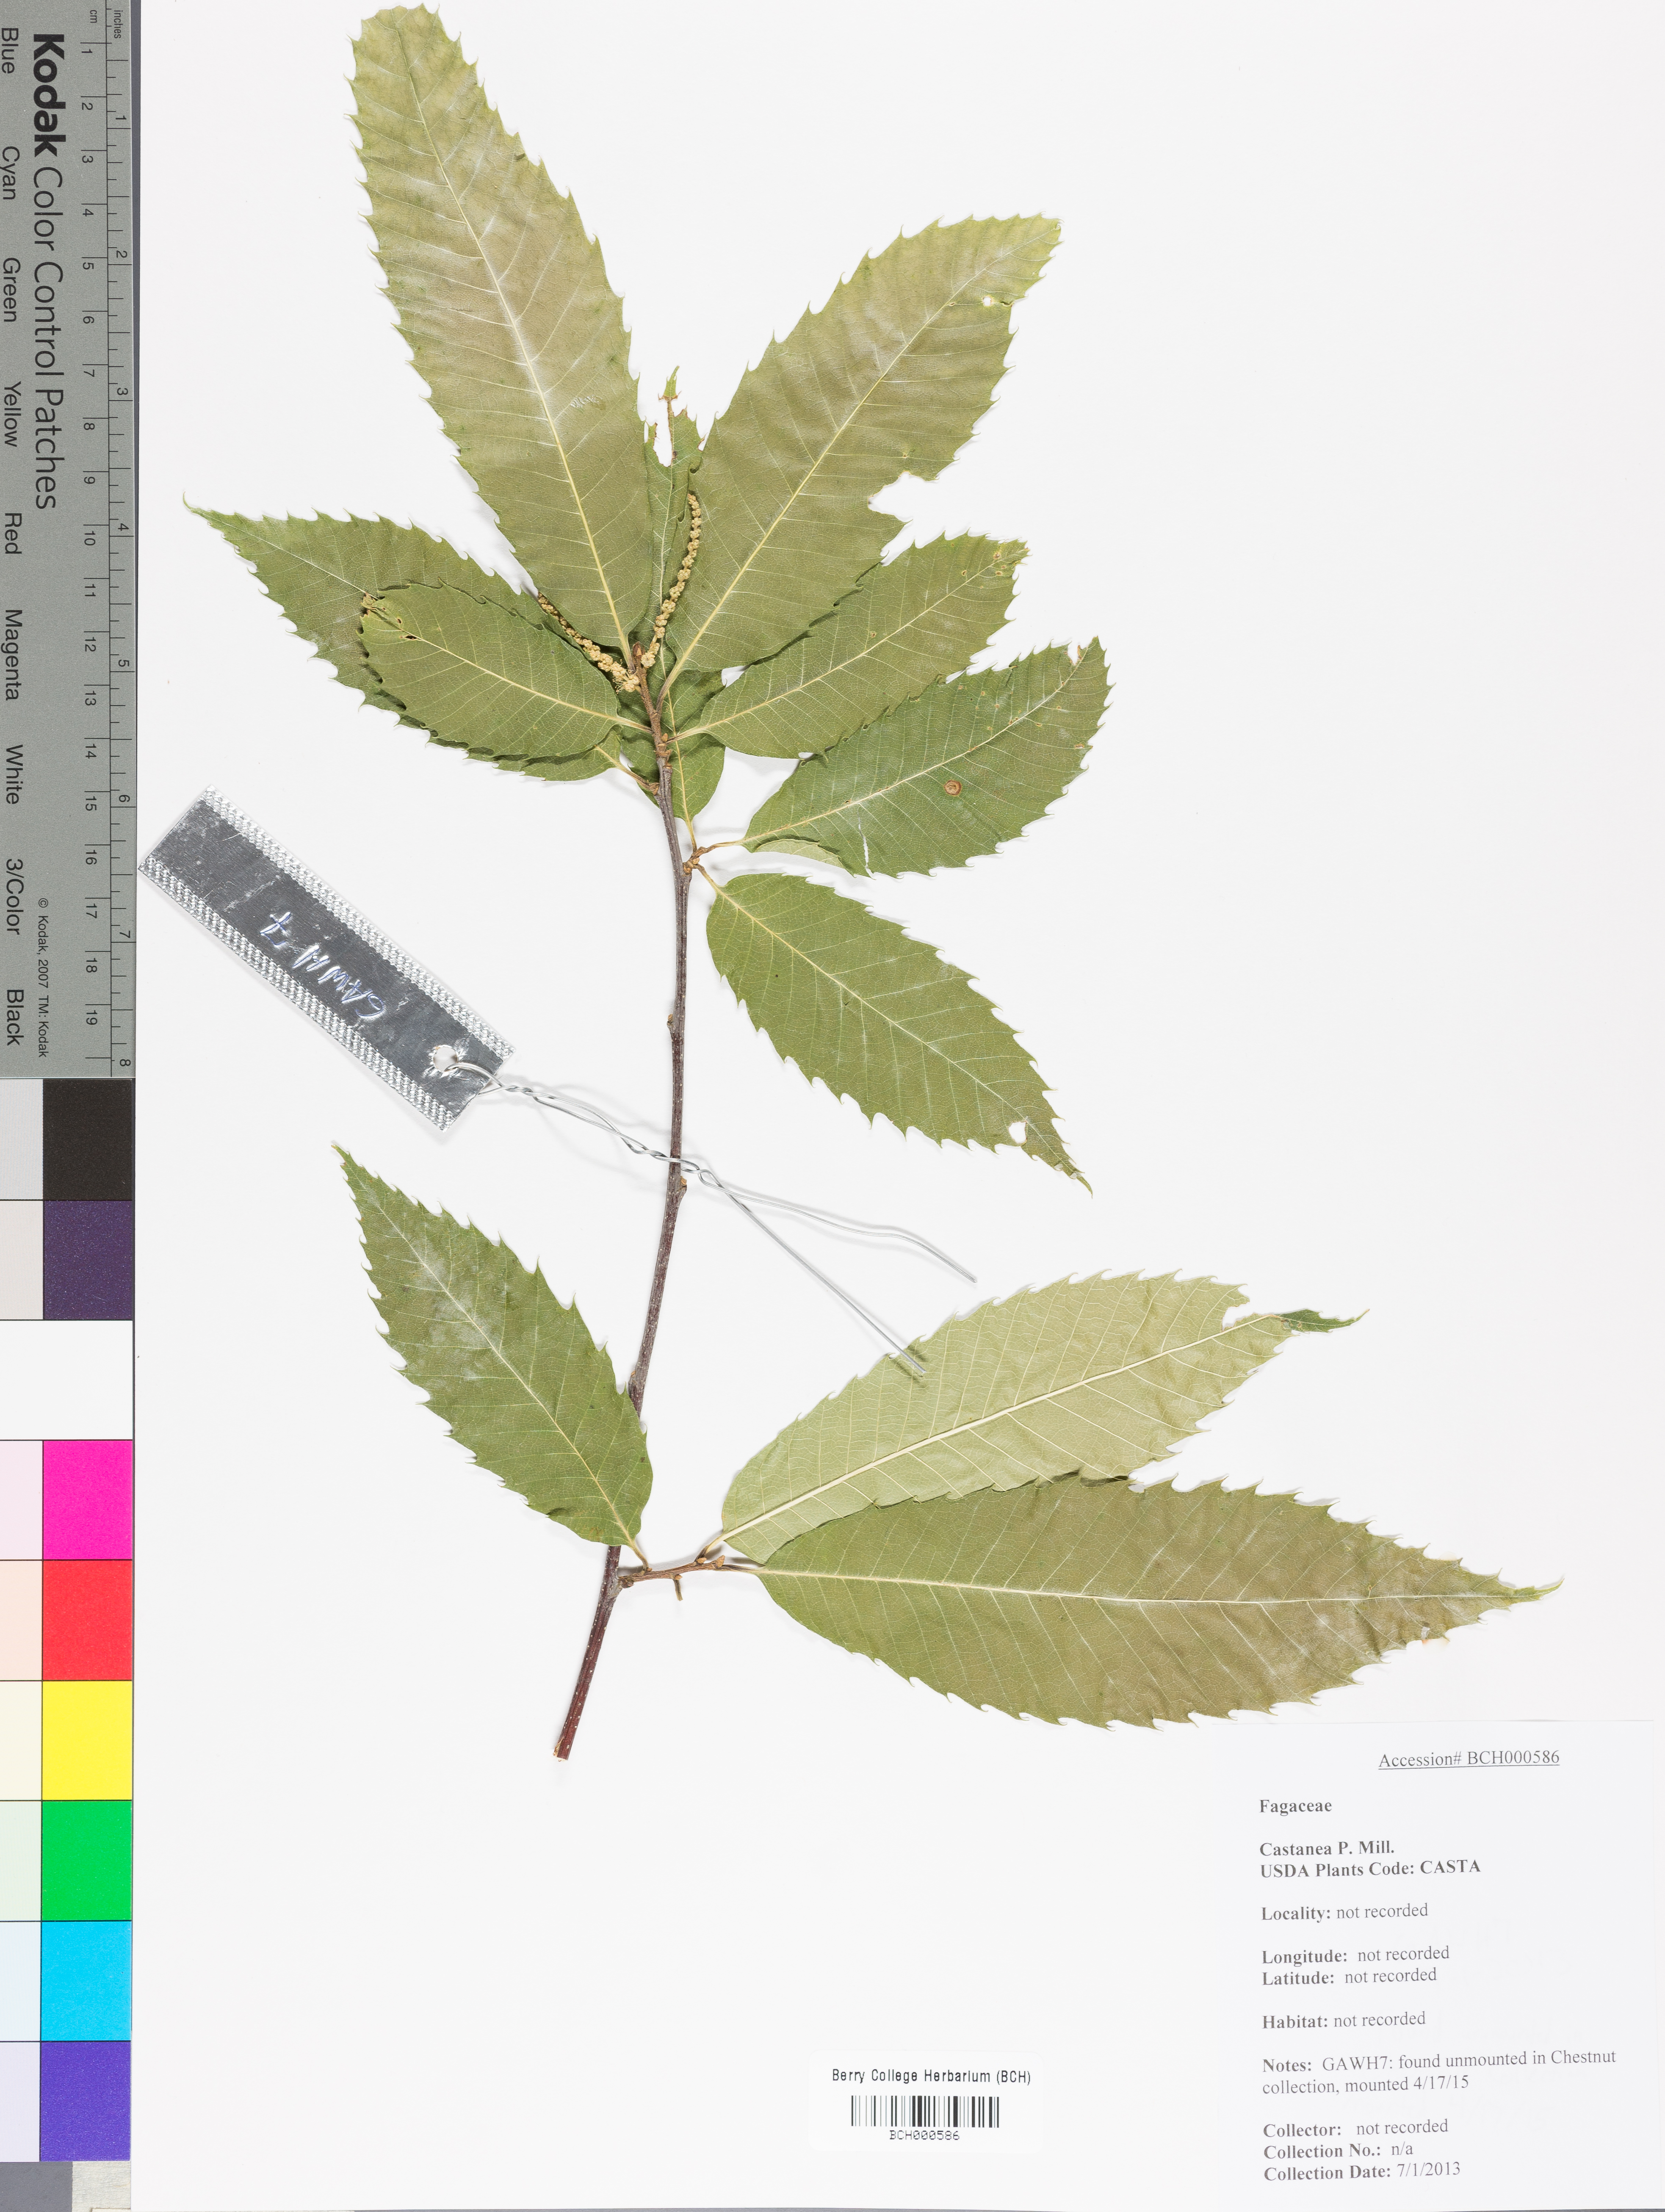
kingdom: Plantae
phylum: Tracheophyta
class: Magnoliopsida
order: Fagales
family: Fagaceae
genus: Castanea
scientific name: Castanea
